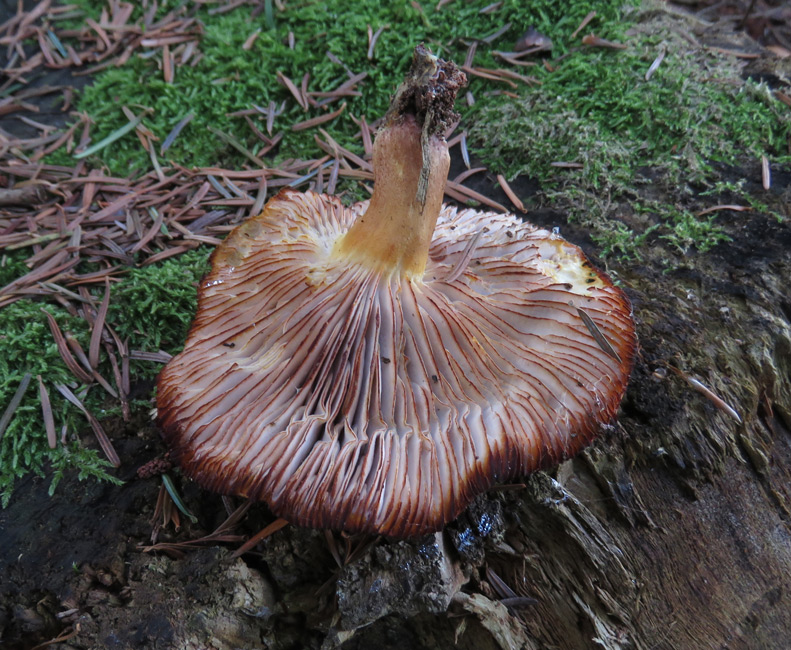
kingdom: Fungi
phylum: Basidiomycota
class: Agaricomycetes
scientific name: Agaricomycetes
